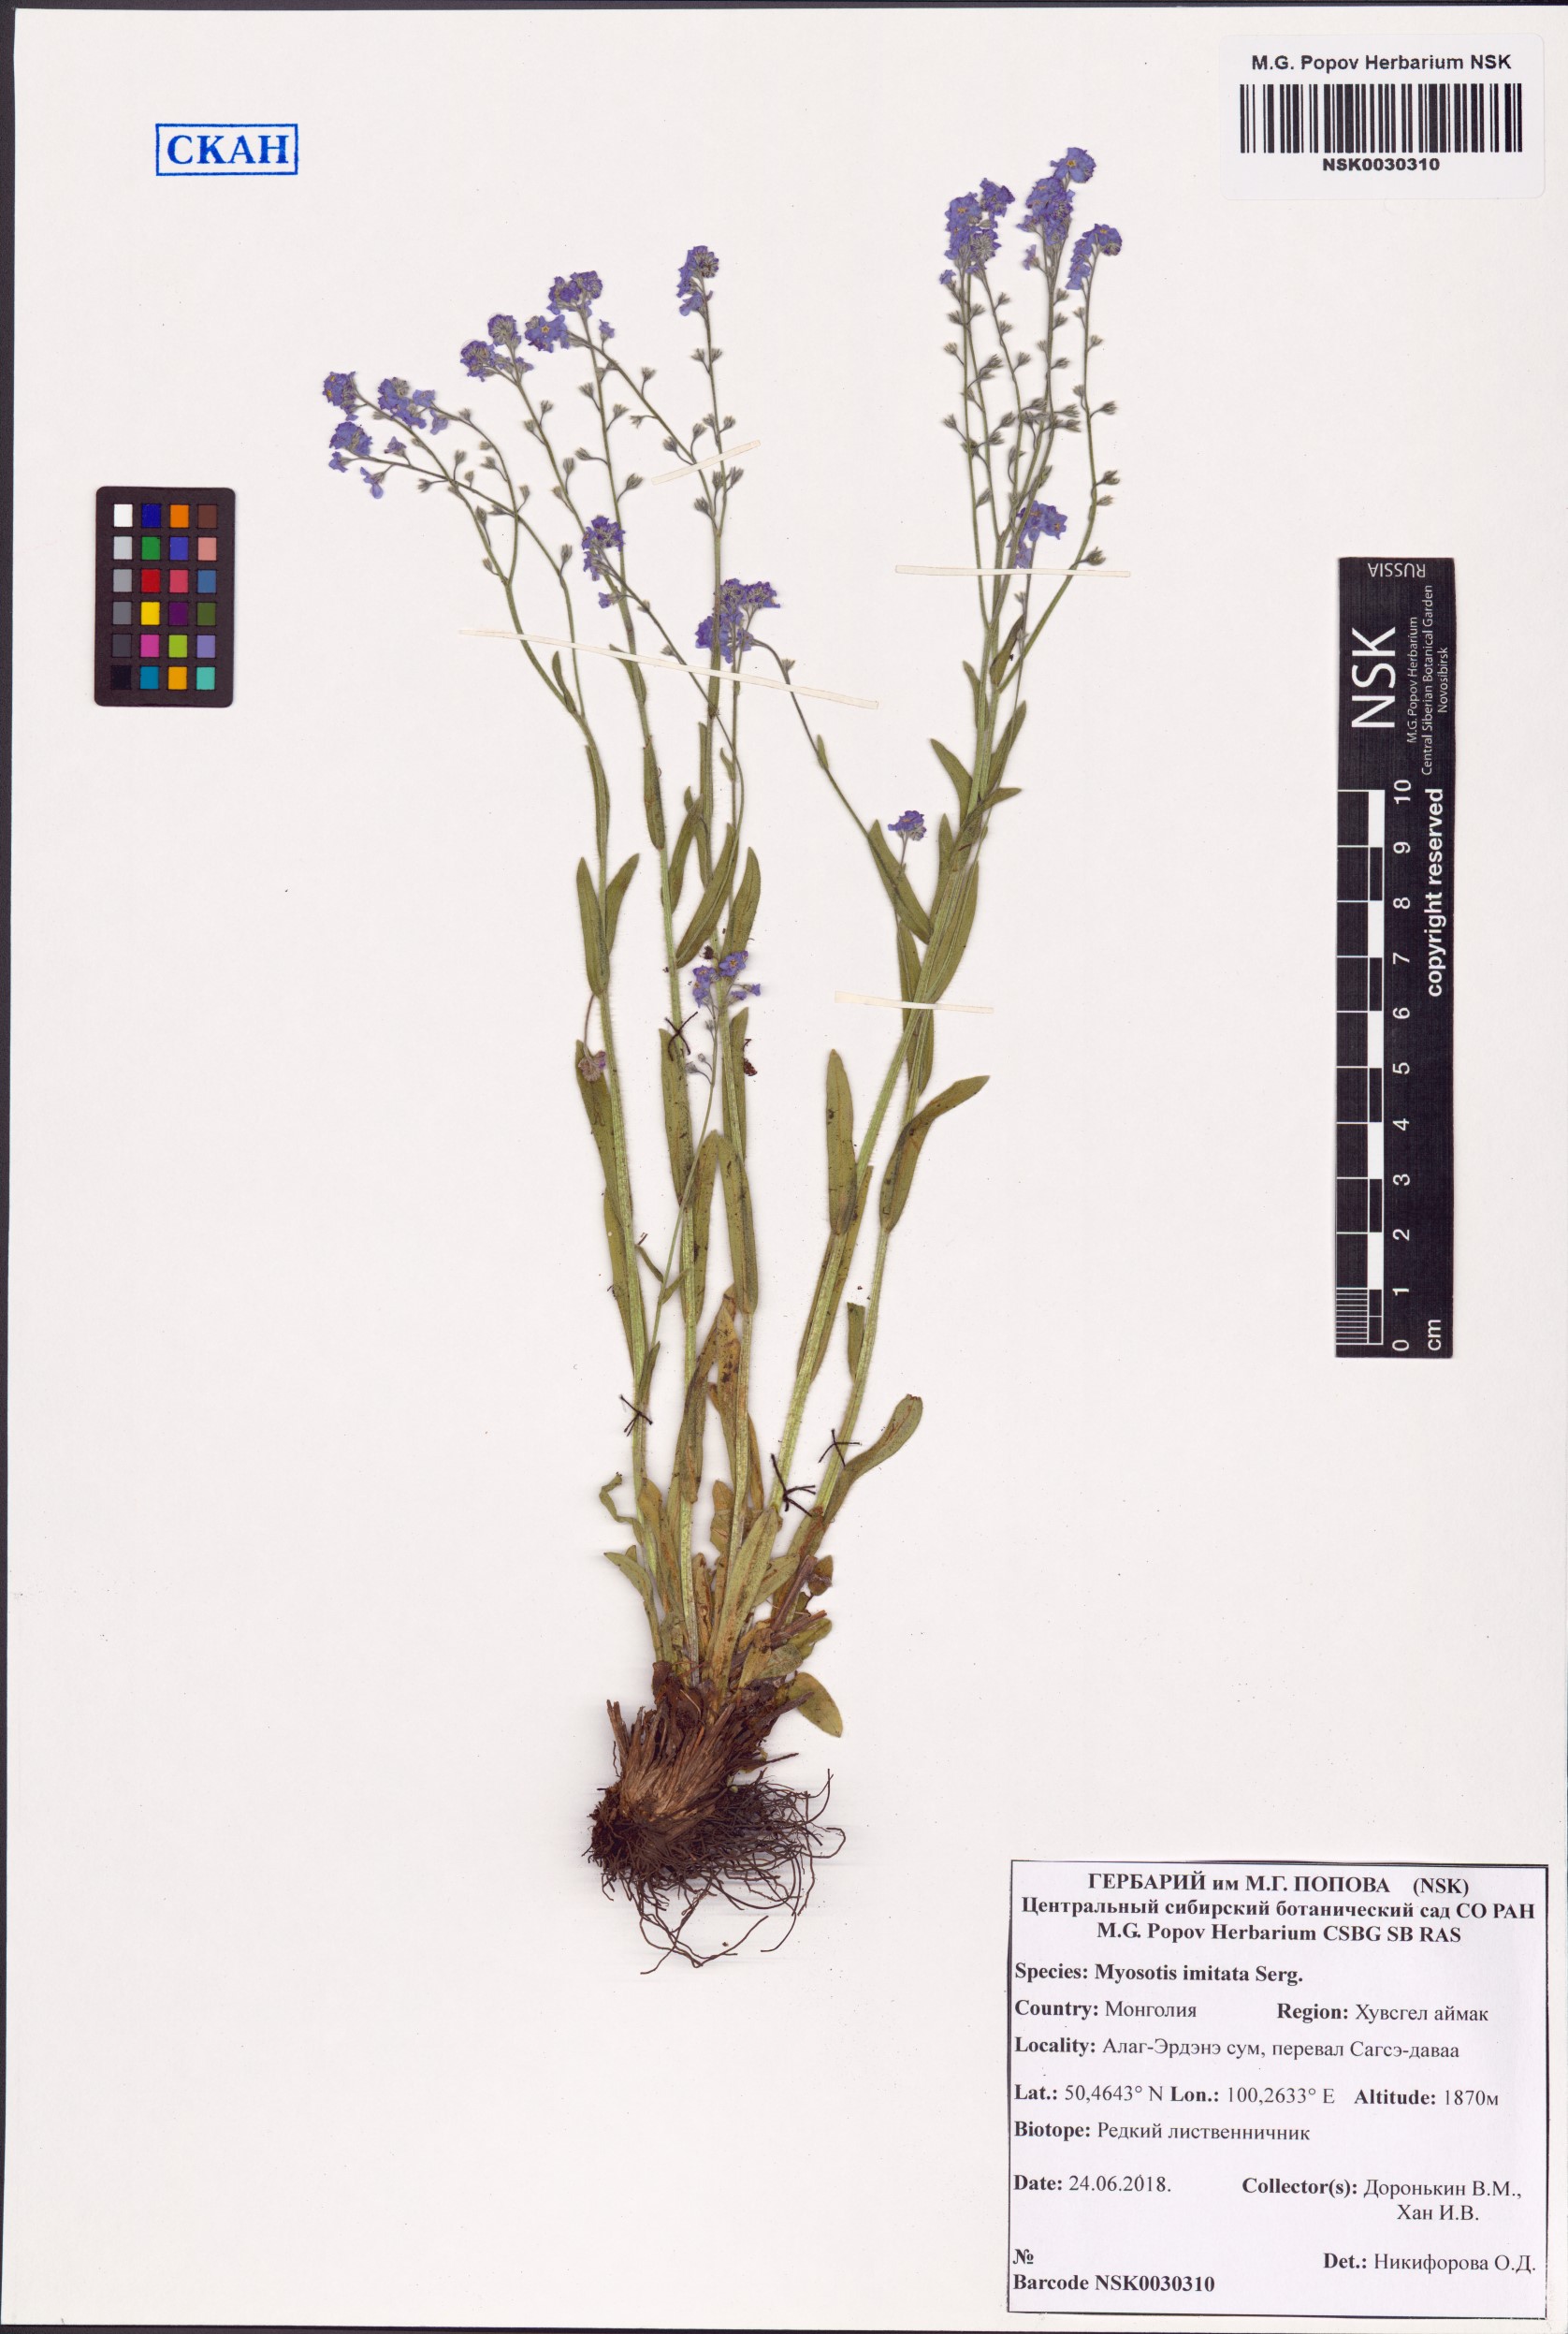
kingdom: Plantae
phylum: Tracheophyta
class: Magnoliopsida
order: Boraginales
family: Boraginaceae
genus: Myosotis
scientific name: Myosotis imitata
